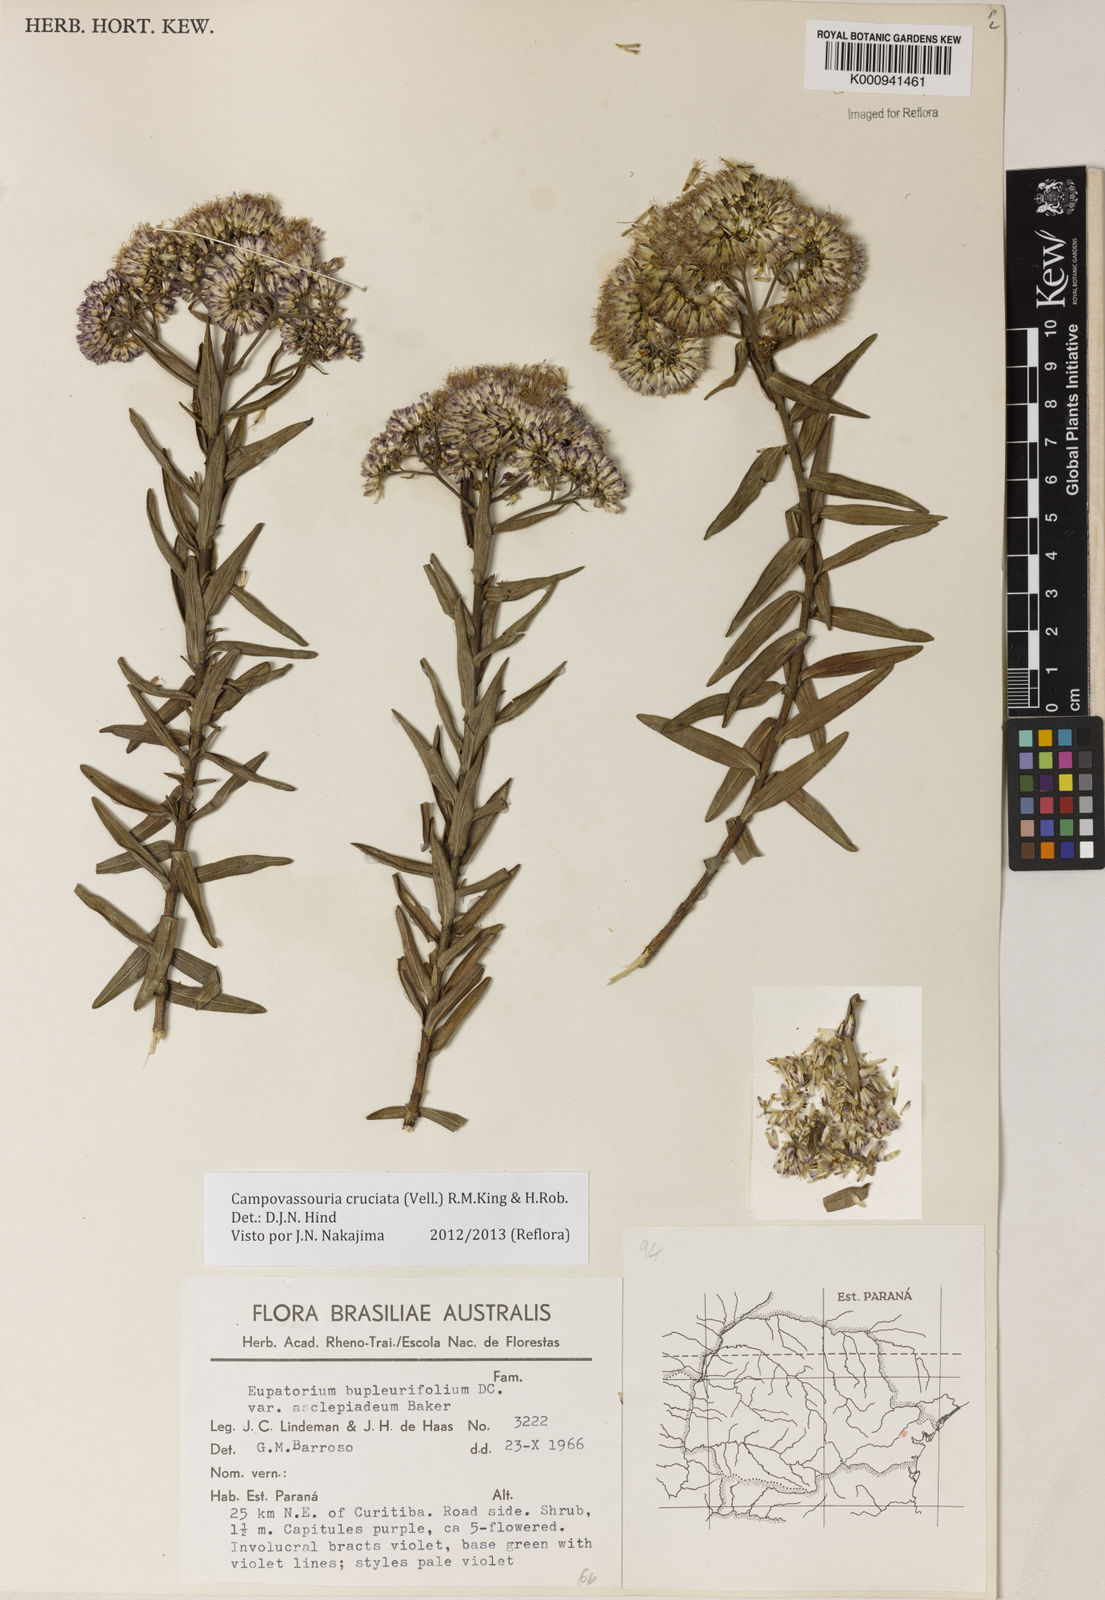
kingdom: Plantae
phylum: Tracheophyta
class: Magnoliopsida
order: Asterales
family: Asteraceae
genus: Campovassouria
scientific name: Campovassouria cruciata
